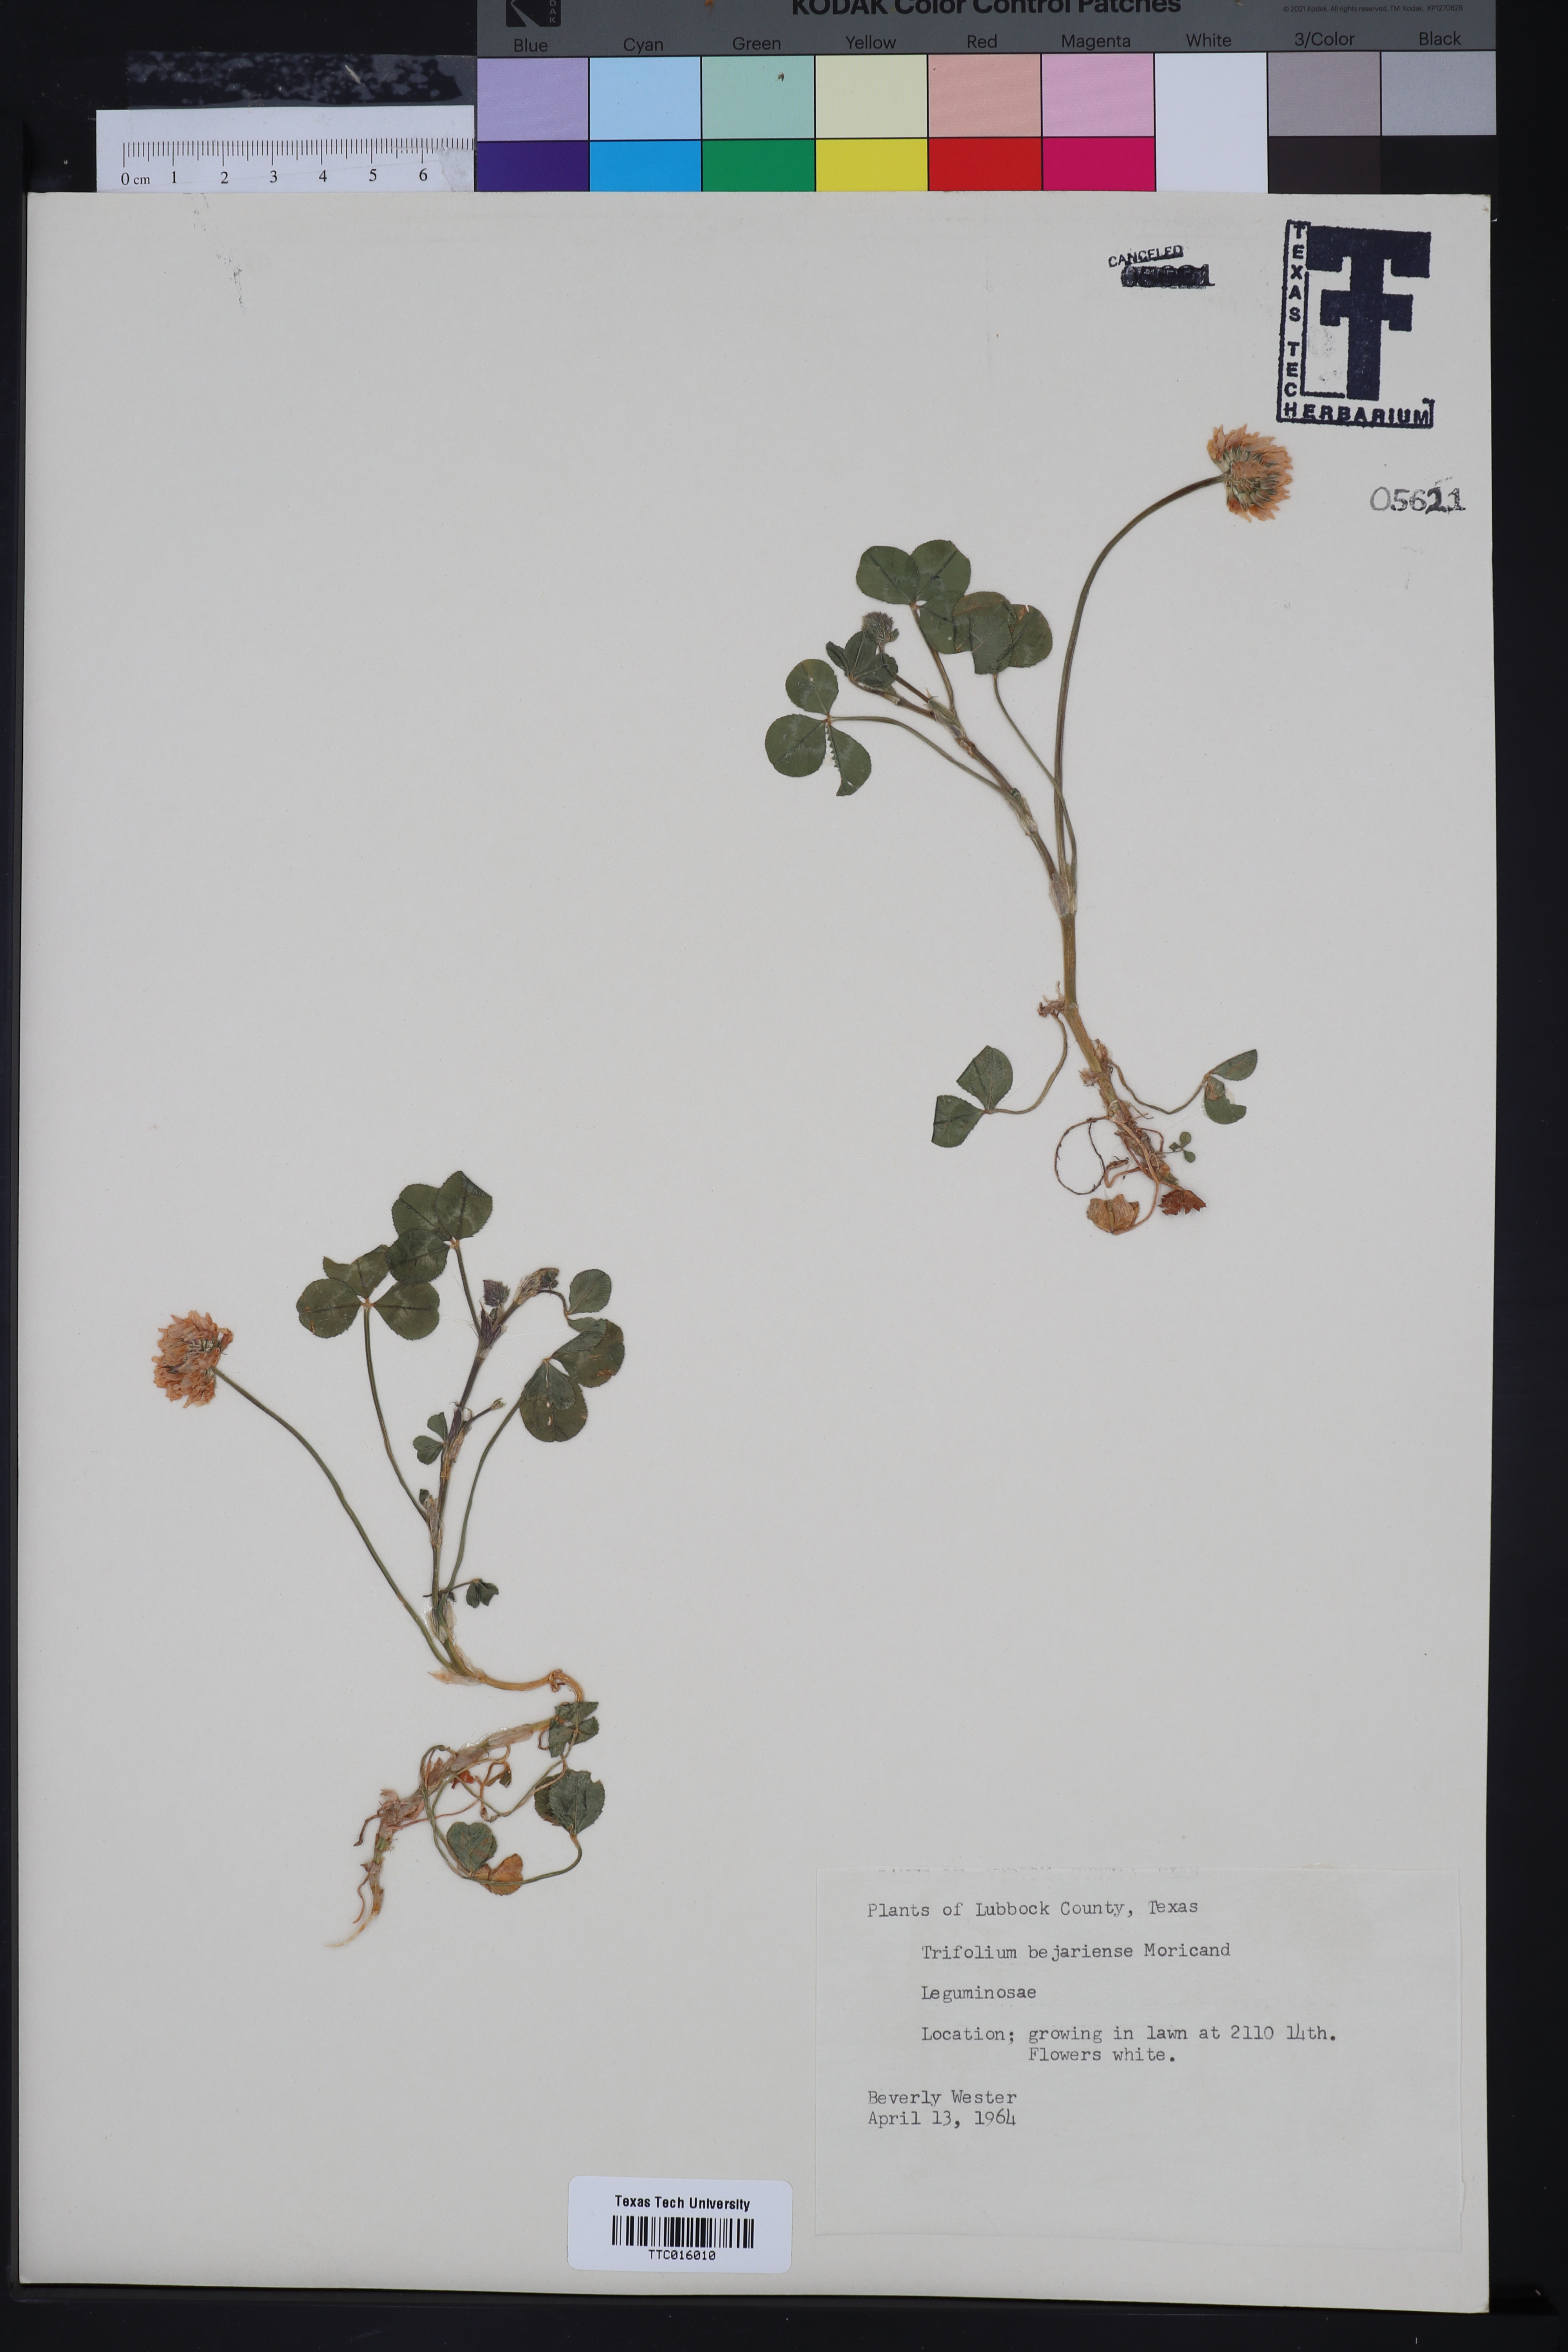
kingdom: Plantae
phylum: Tracheophyta
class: Magnoliopsida
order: Fabales
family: Fabaceae
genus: Trifolium
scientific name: Trifolium bejariense
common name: Bejar clover
